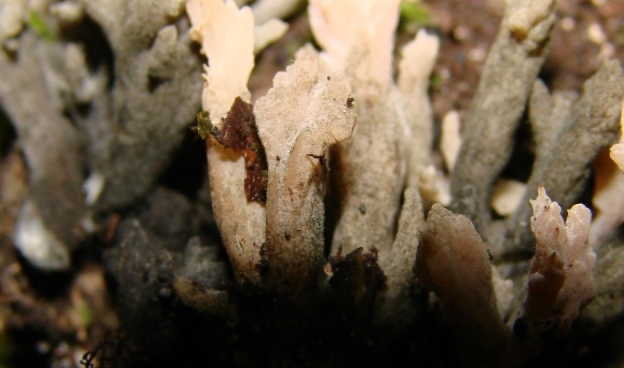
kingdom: Fungi
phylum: Ascomycota
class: Sordariomycetes
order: Sordariales
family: Helminthosphaeriaceae
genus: Helminthosphaeria
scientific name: Helminthosphaeria clavariarum
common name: trold-svampesnyltekerne
